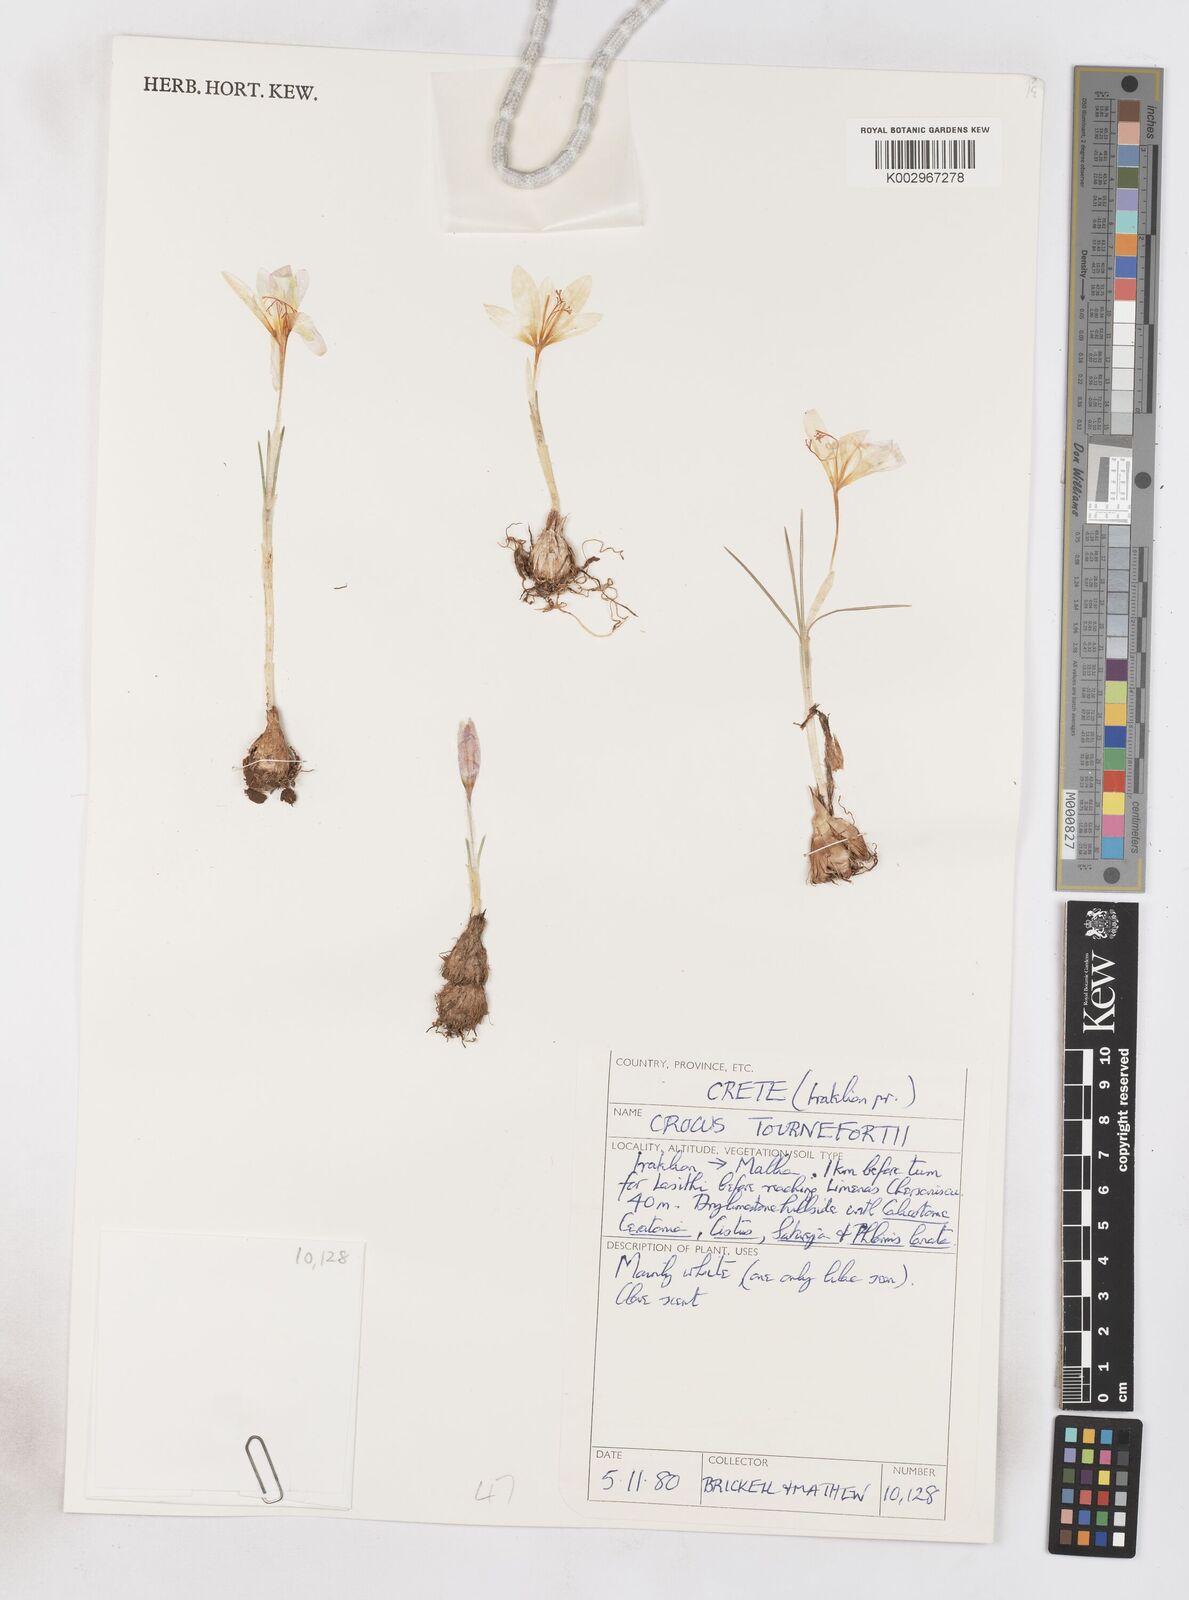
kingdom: Plantae
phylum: Tracheophyta
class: Liliopsida
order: Asparagales
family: Iridaceae
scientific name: Iridaceae
